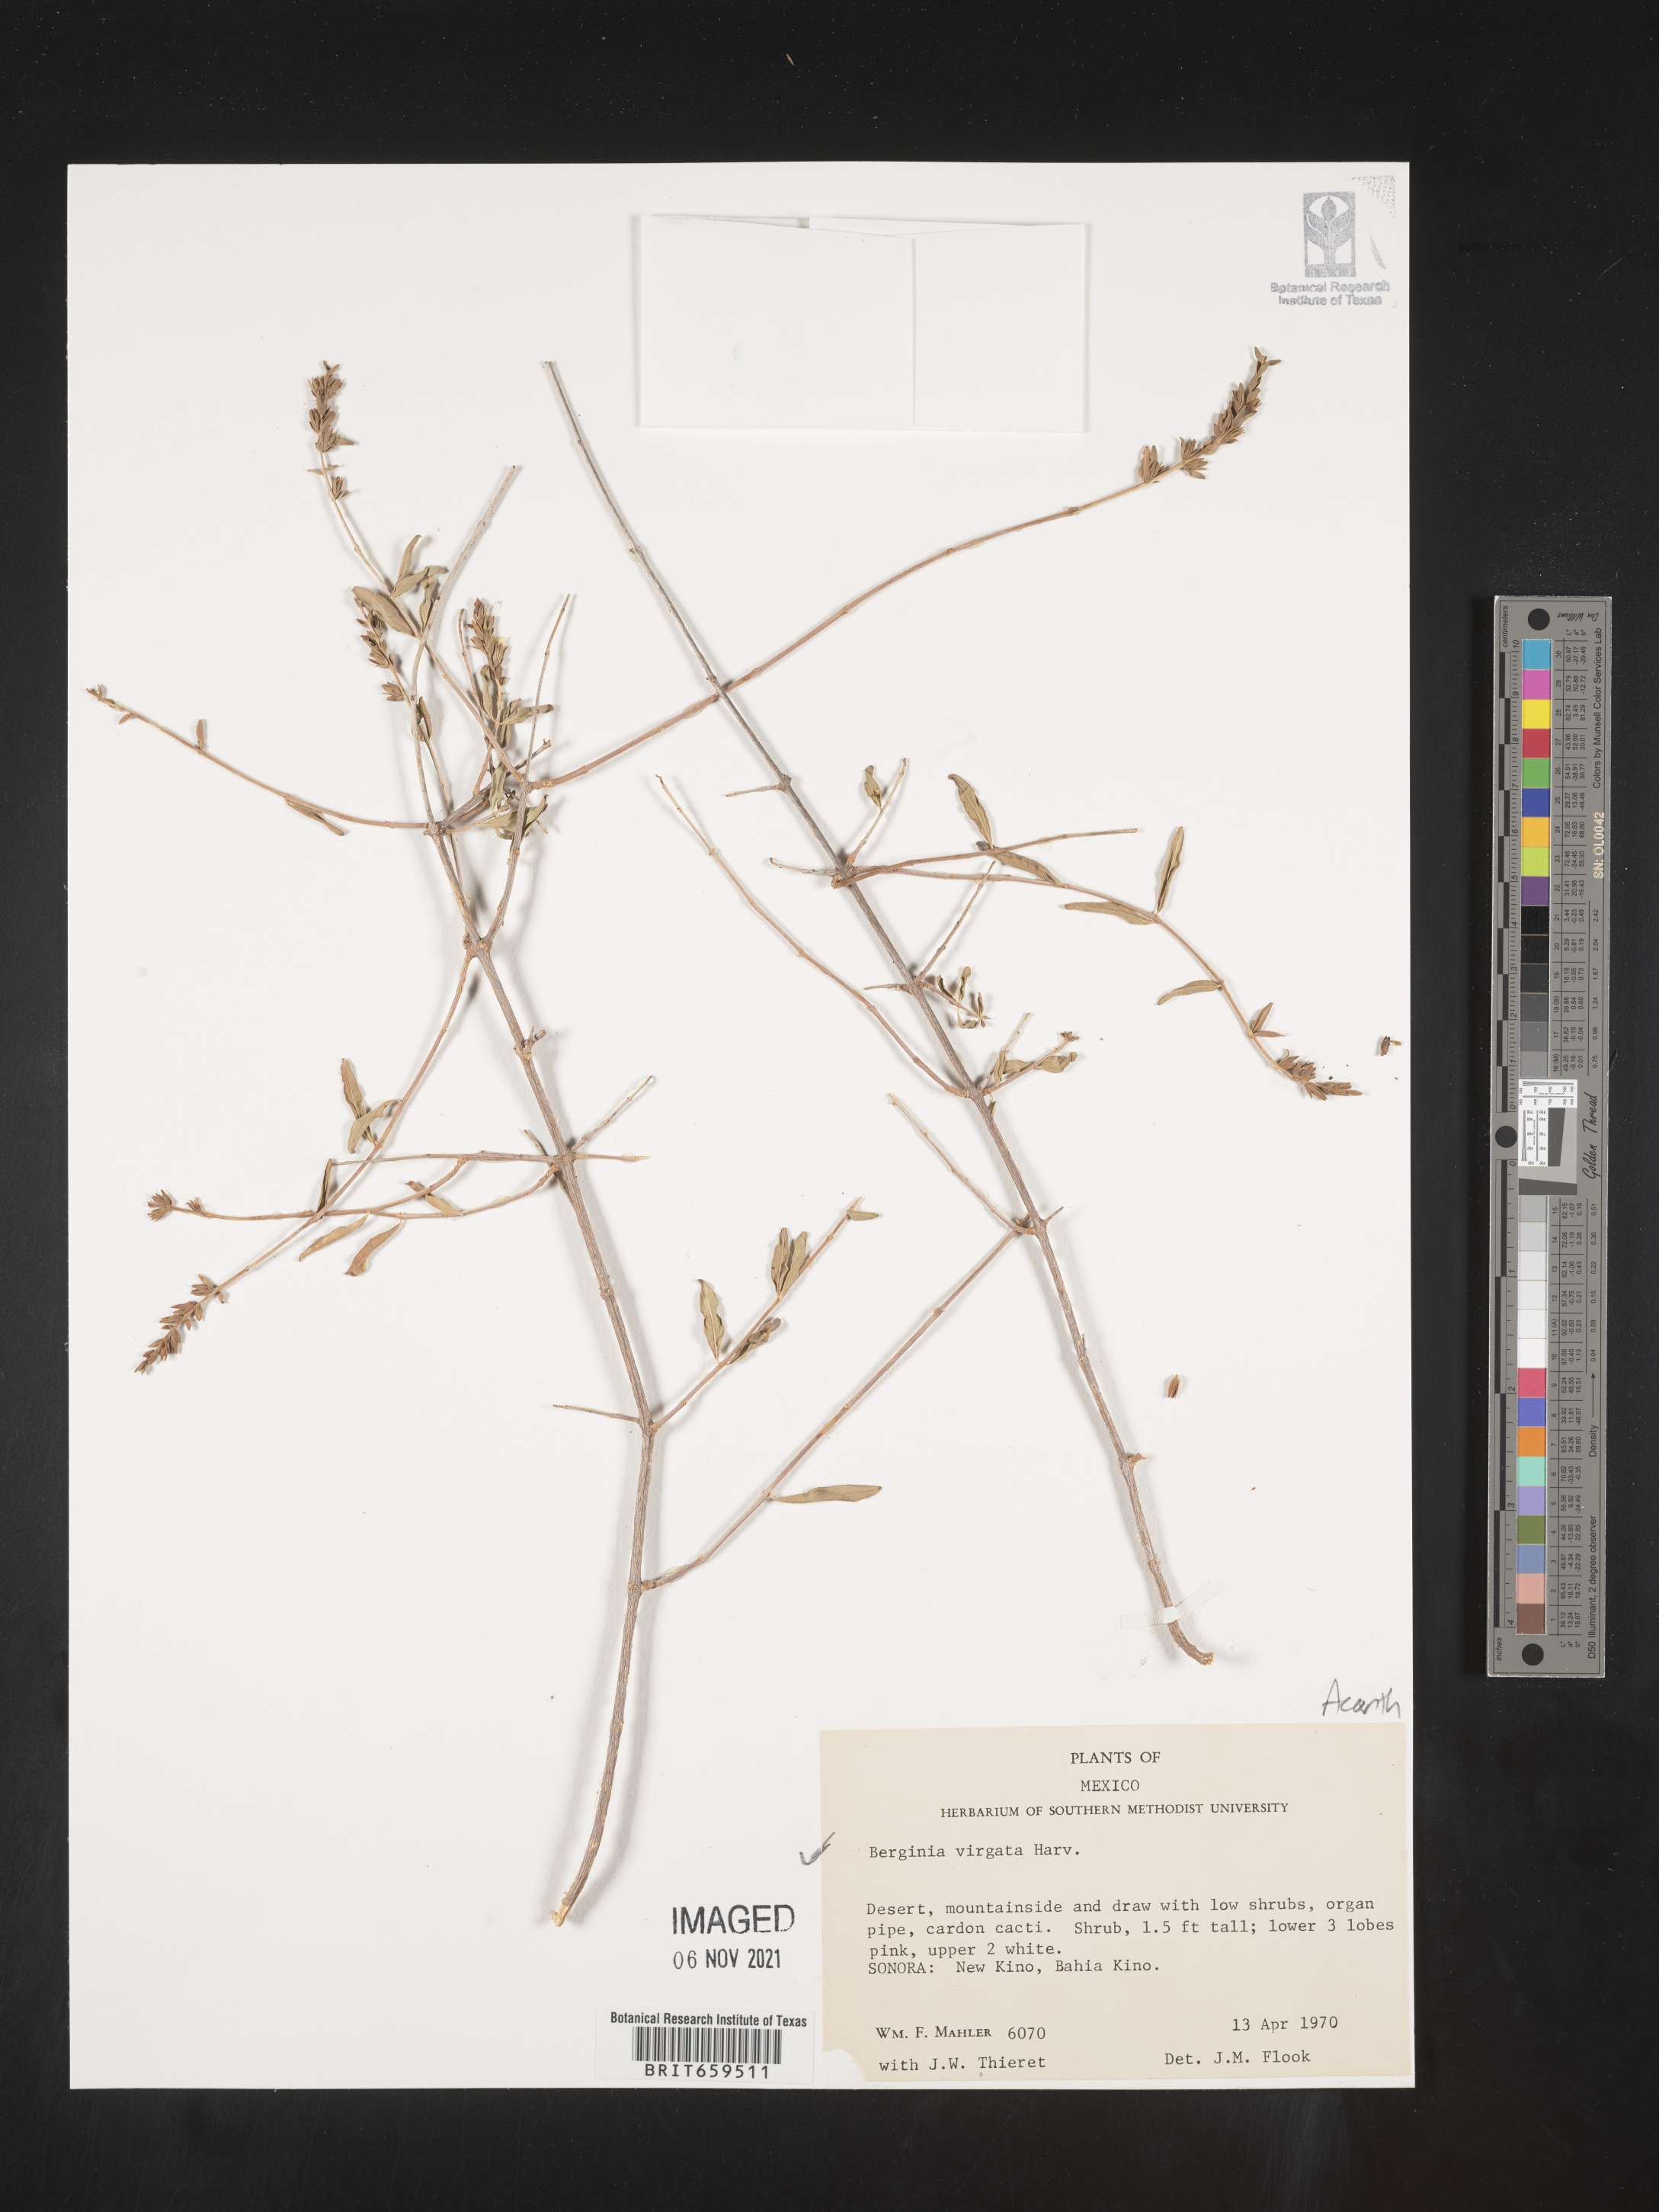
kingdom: Plantae
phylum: Tracheophyta
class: Magnoliopsida
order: Lamiales
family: Acanthaceae
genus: Holographis
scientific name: Holographis
